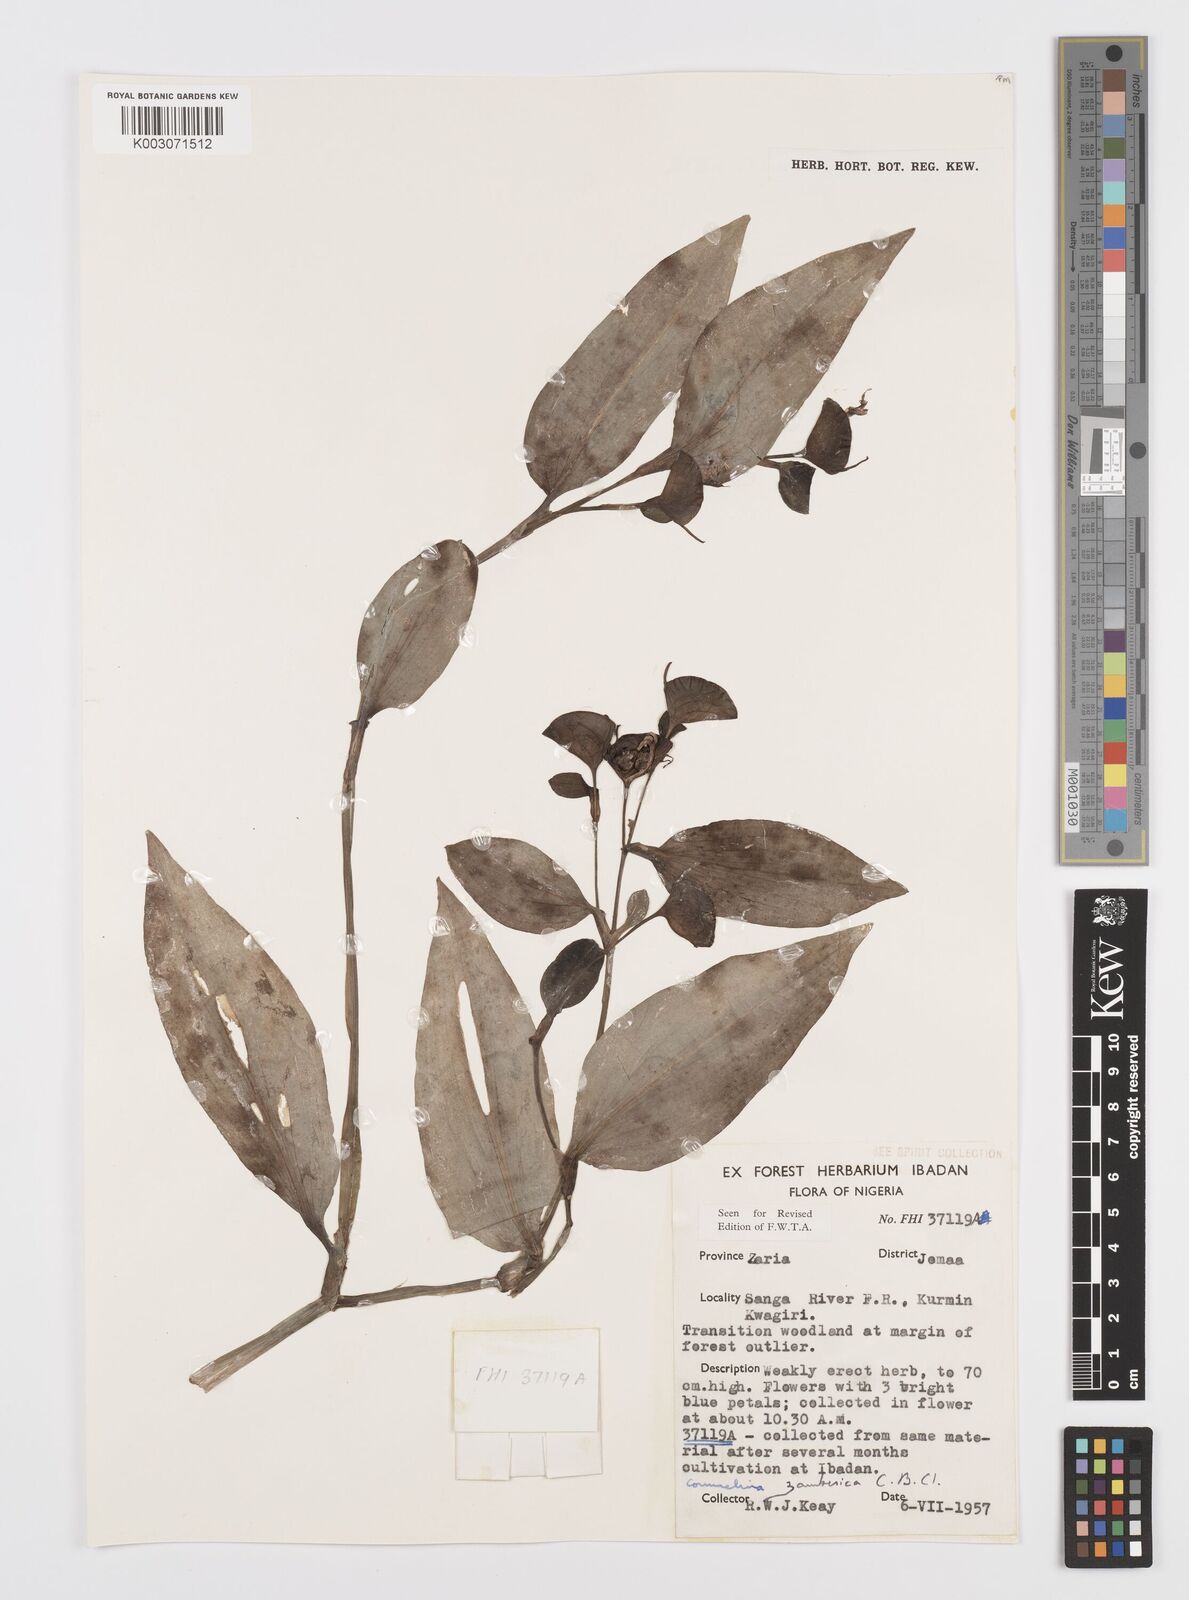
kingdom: Plantae
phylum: Tracheophyta
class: Liliopsida
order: Commelinales
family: Commelinaceae
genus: Commelina
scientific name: Commelina zambesica
